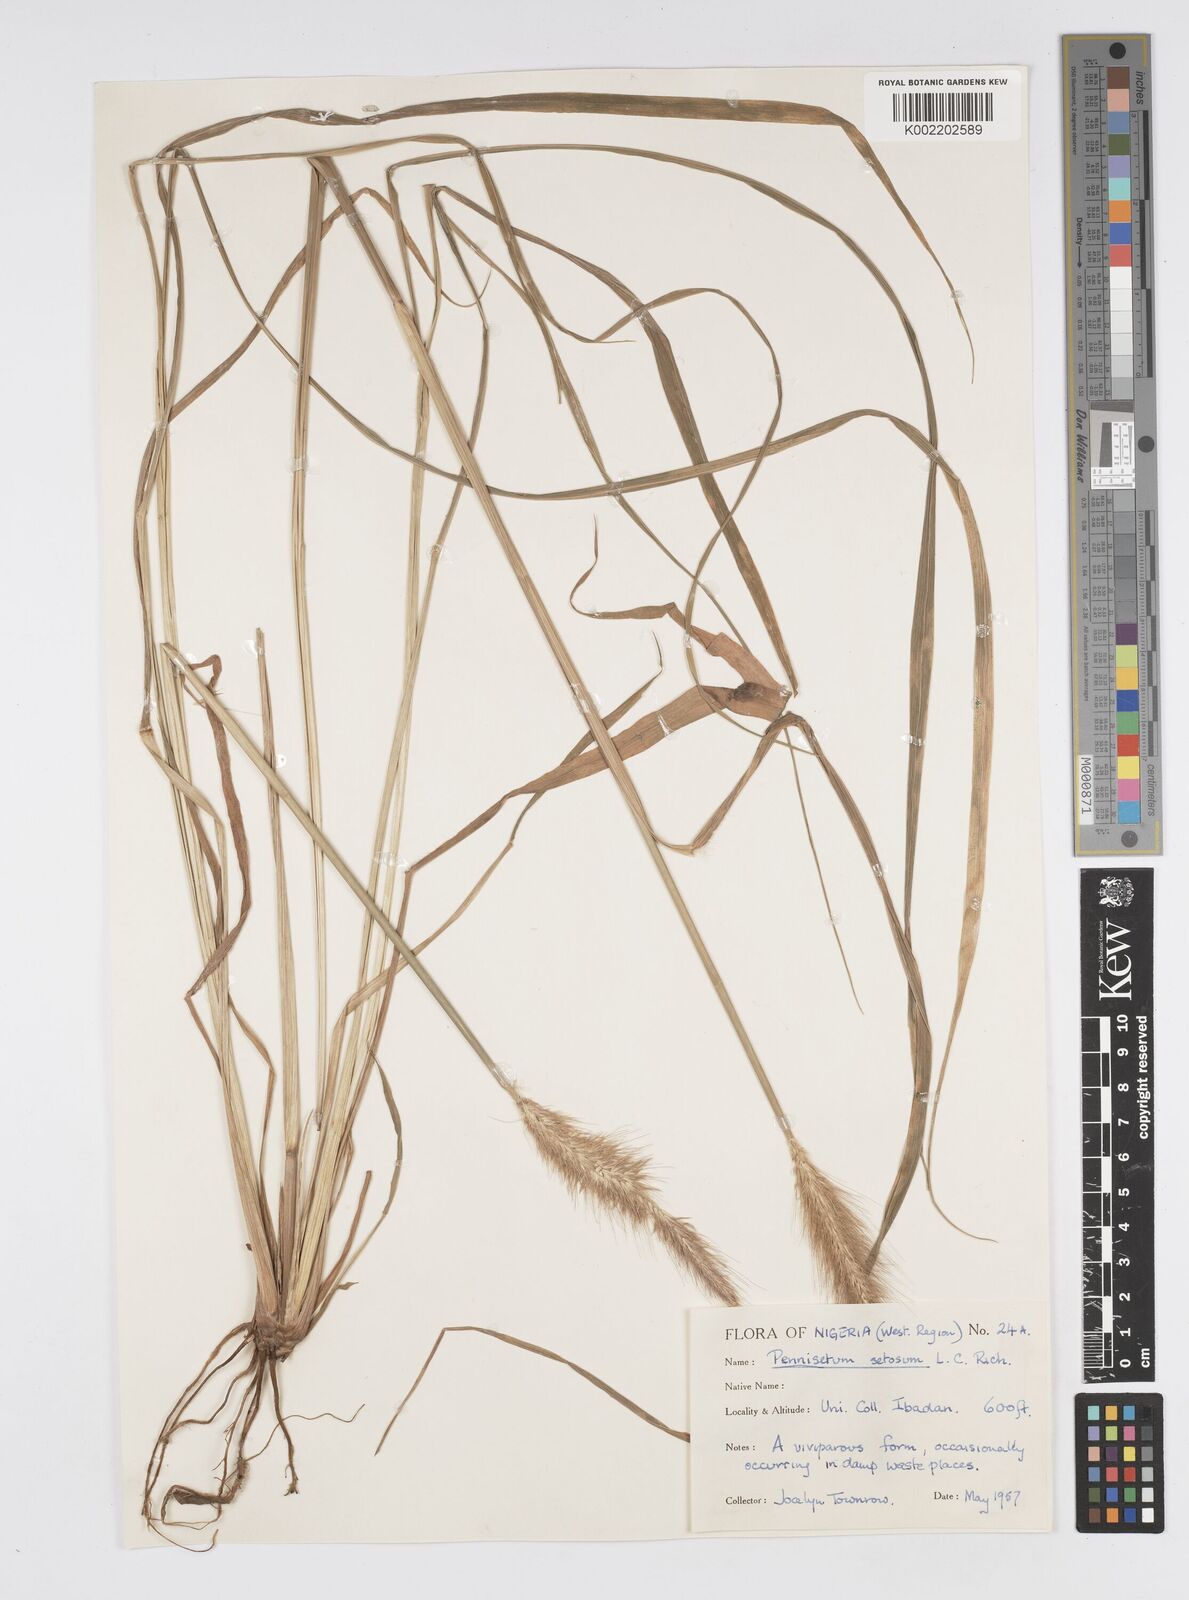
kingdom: Plantae
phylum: Tracheophyta
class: Liliopsida
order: Poales
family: Poaceae
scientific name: Poaceae
